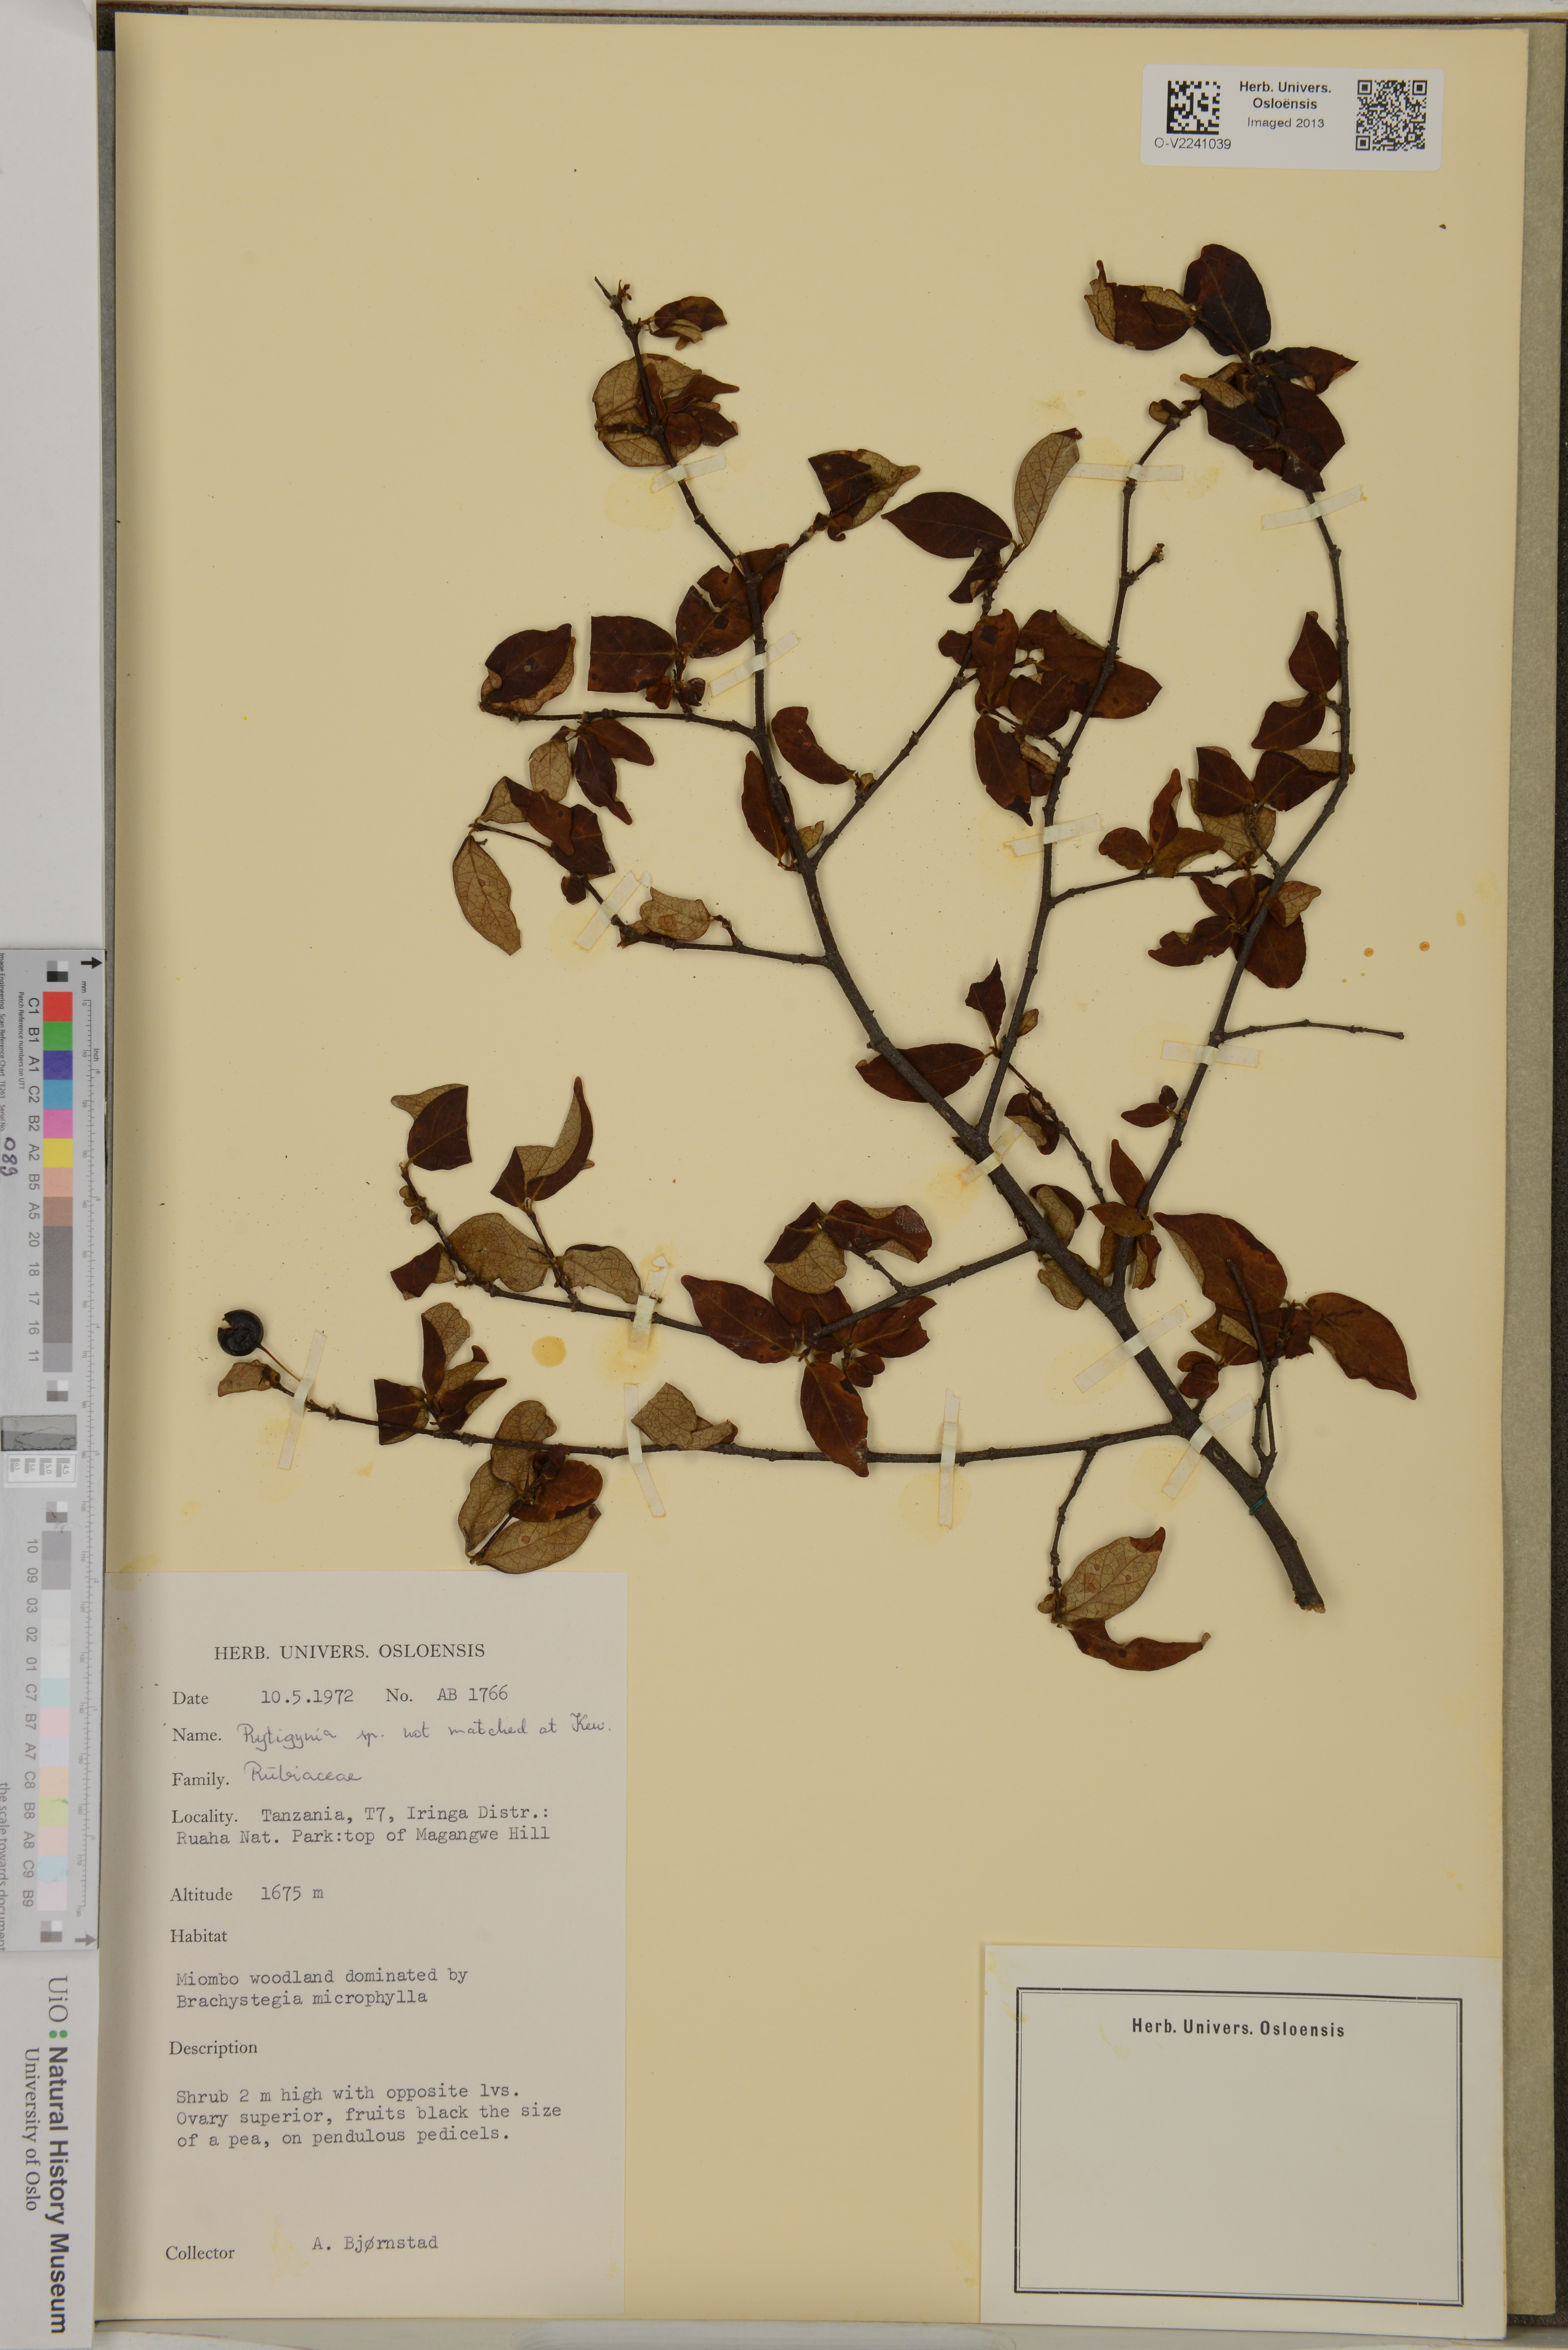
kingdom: Plantae
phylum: Tracheophyta
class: Magnoliopsida
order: Gentianales
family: Rubiaceae
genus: Rytigynia
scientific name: Rytigynia
